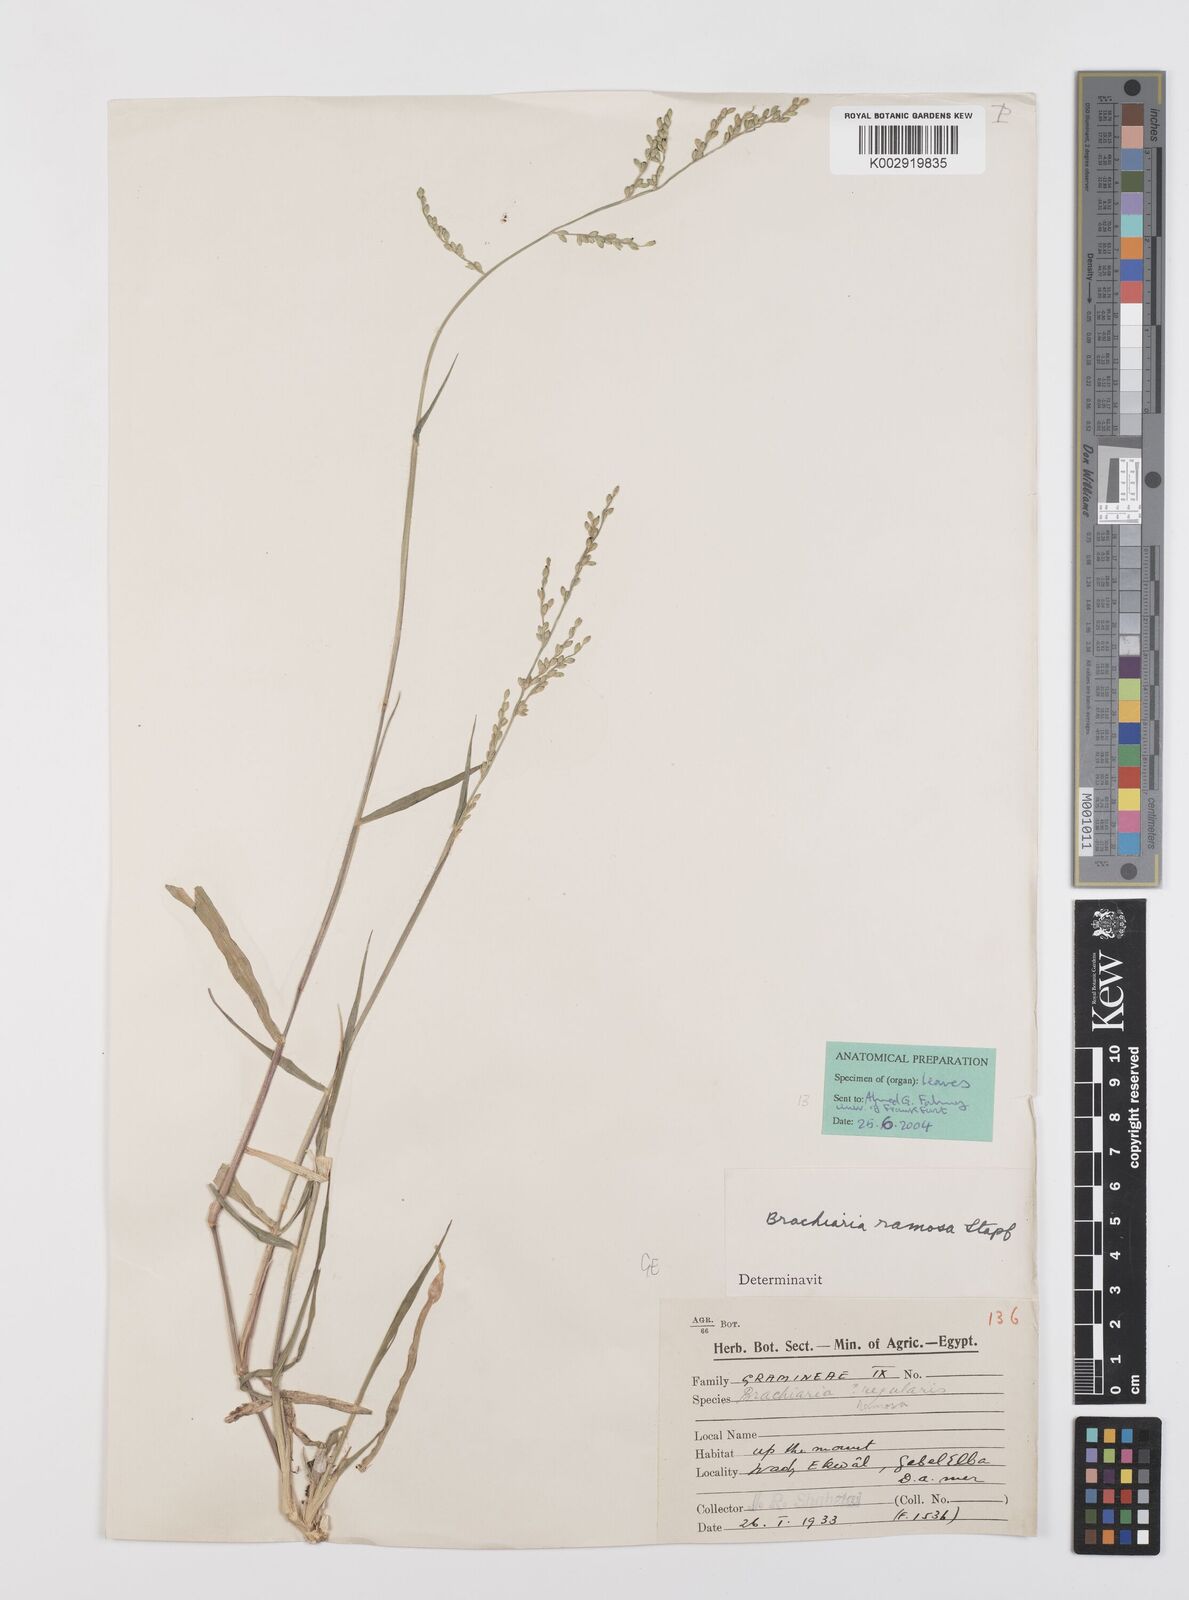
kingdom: Plantae
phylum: Tracheophyta
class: Liliopsida
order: Poales
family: Poaceae
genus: Urochloa
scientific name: Urochloa ramosa
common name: Browntop millet
